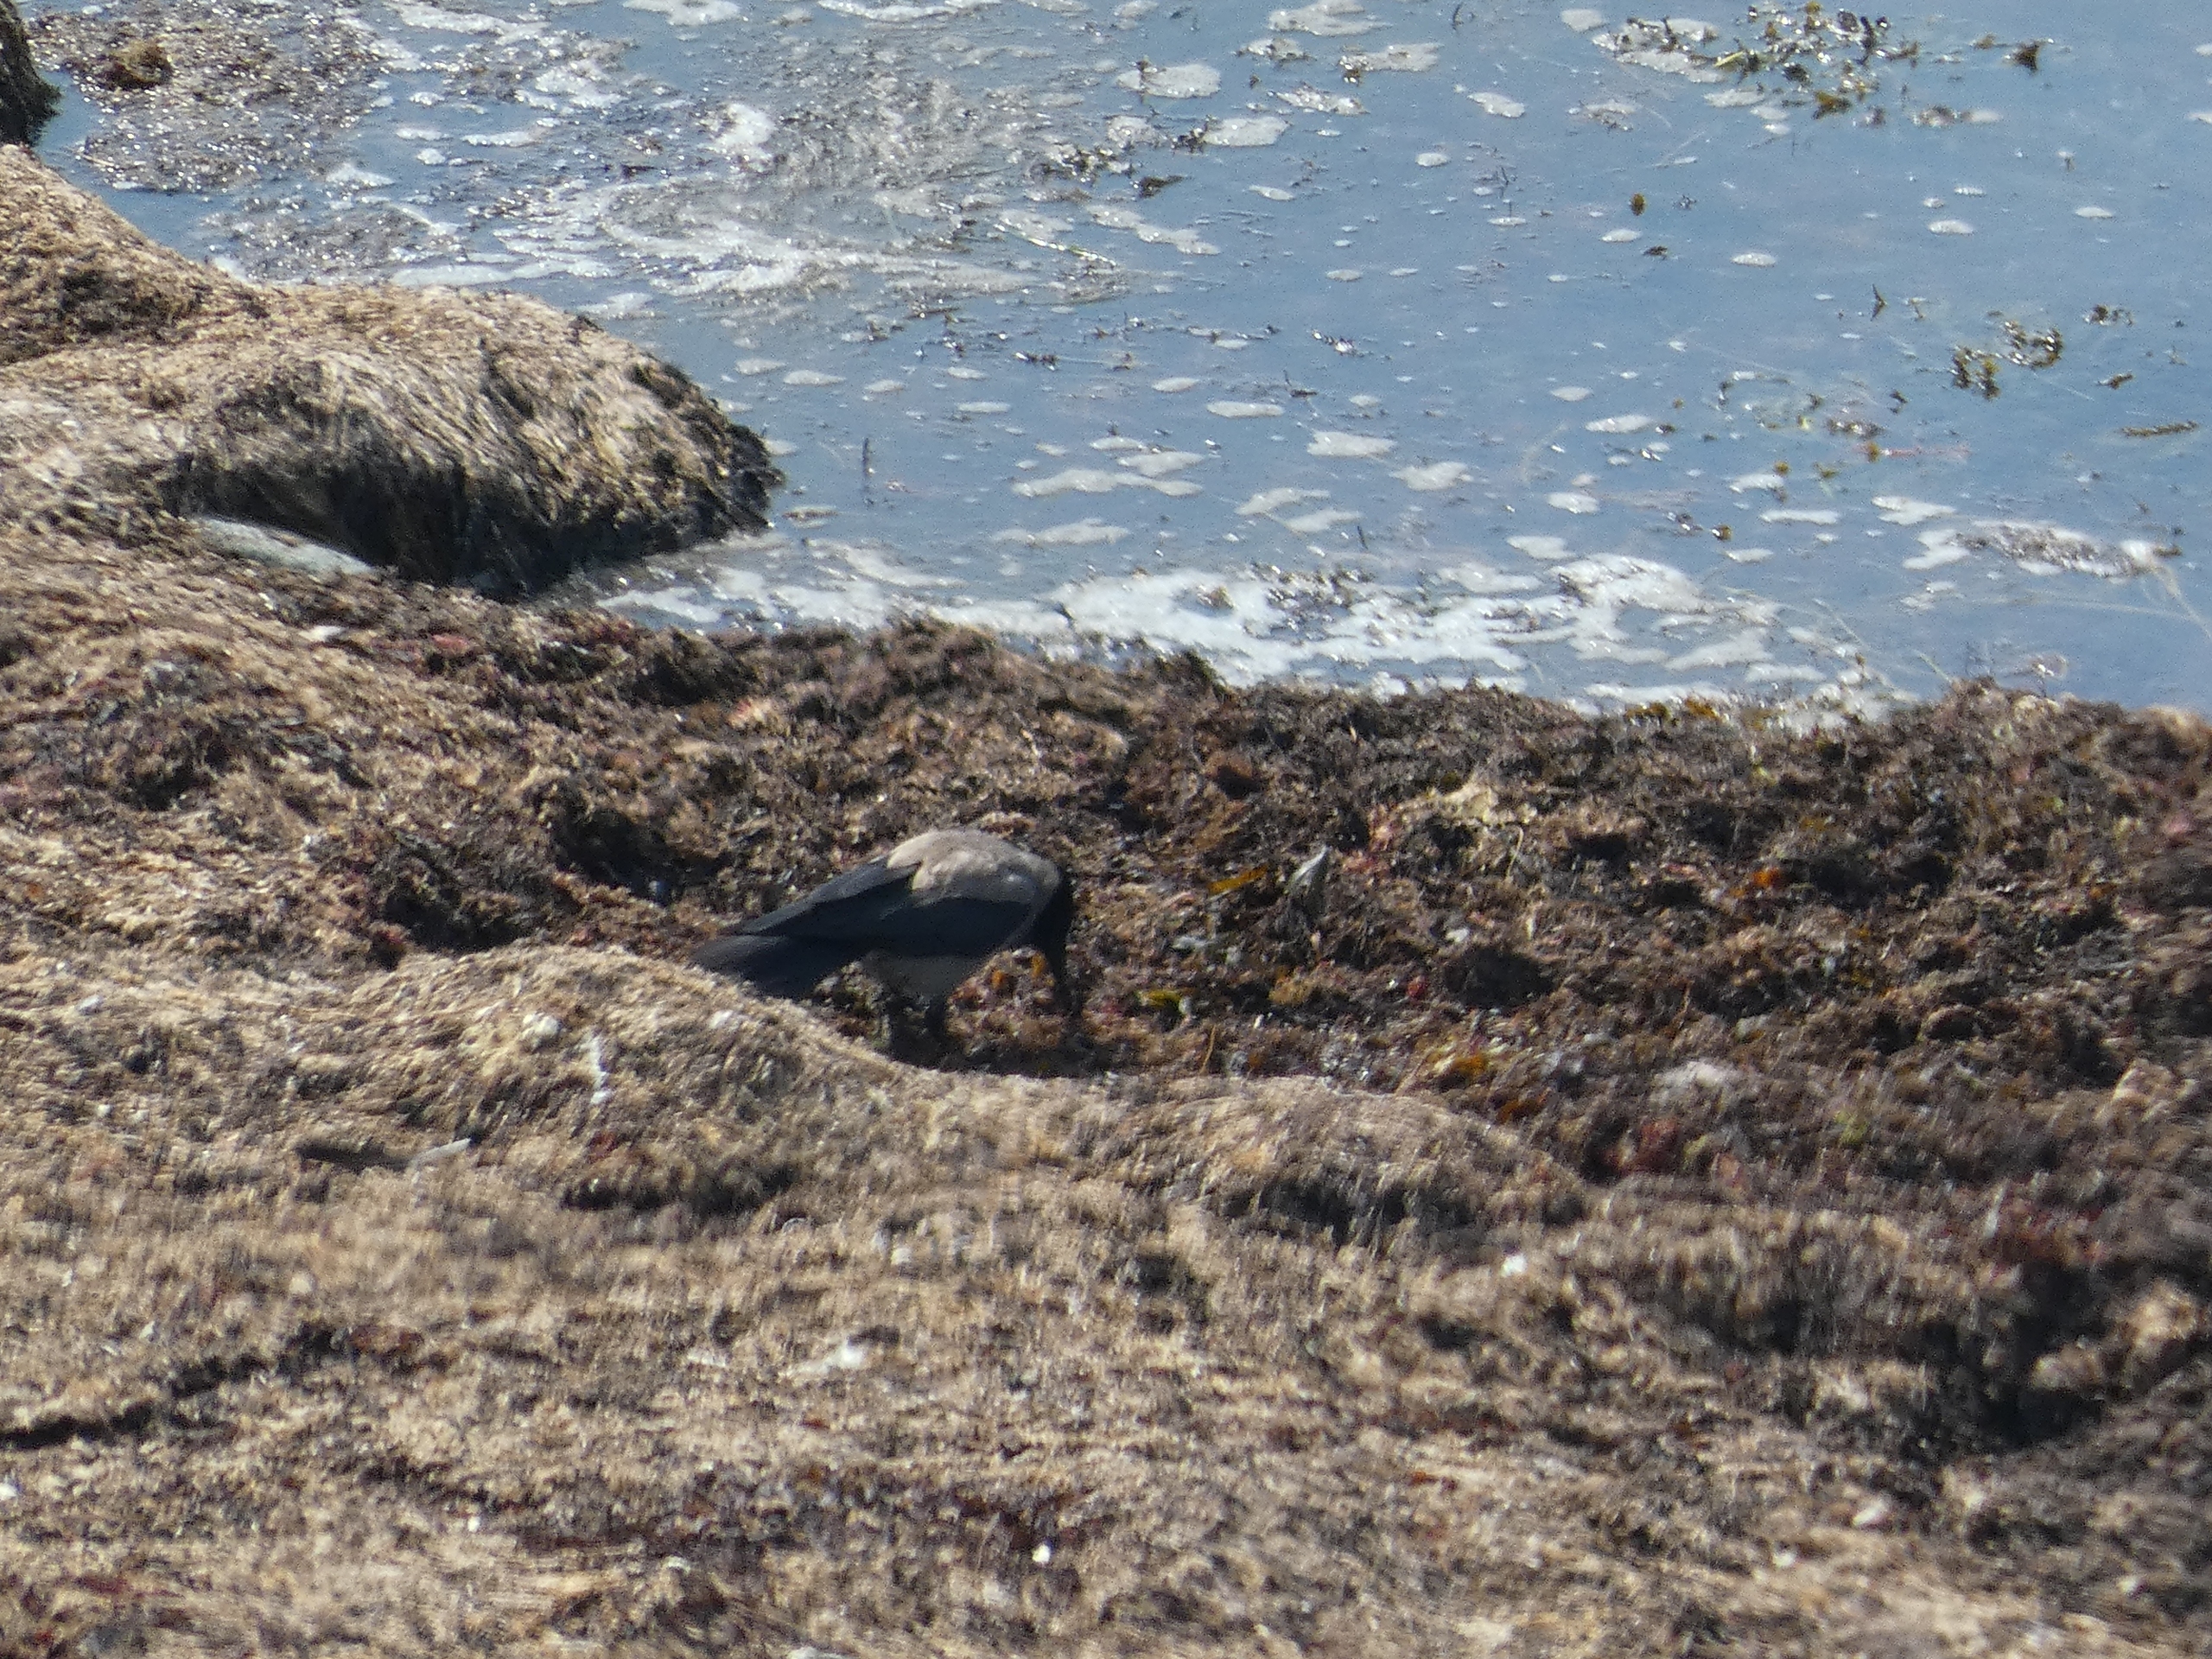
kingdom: Animalia
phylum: Chordata
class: Aves
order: Passeriformes
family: Corvidae
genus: Corvus
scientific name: Corvus cornix
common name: Gråkrage
